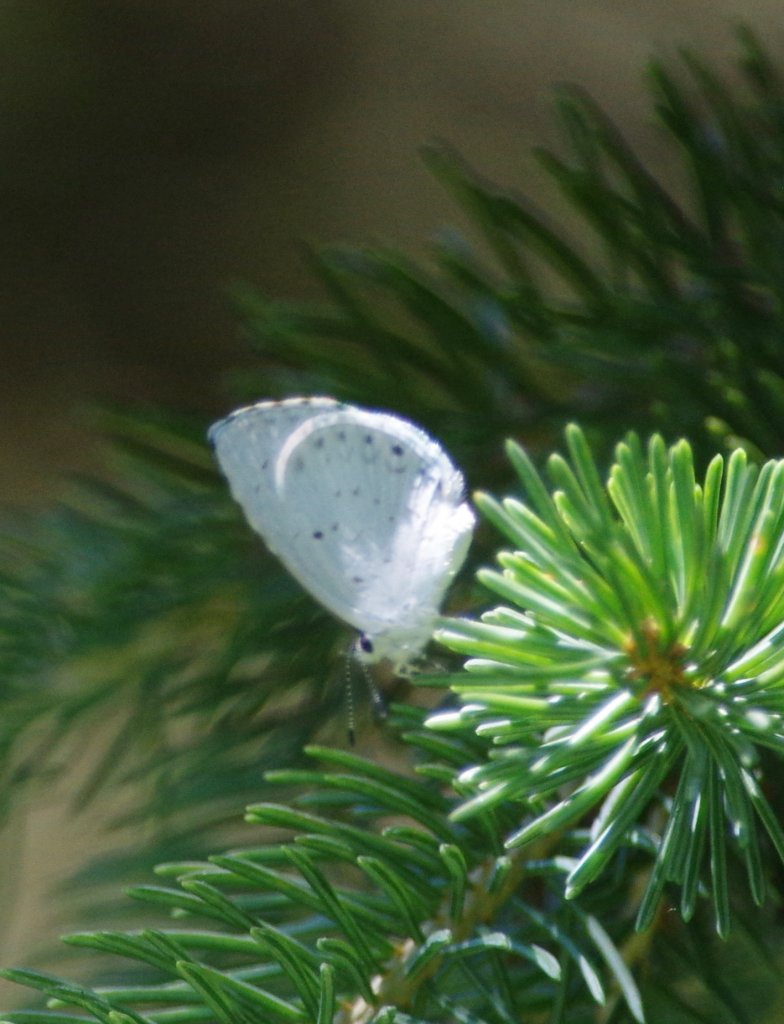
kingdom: Animalia
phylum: Arthropoda
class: Insecta
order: Lepidoptera
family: Lycaenidae
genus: Celastrina
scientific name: Celastrina
